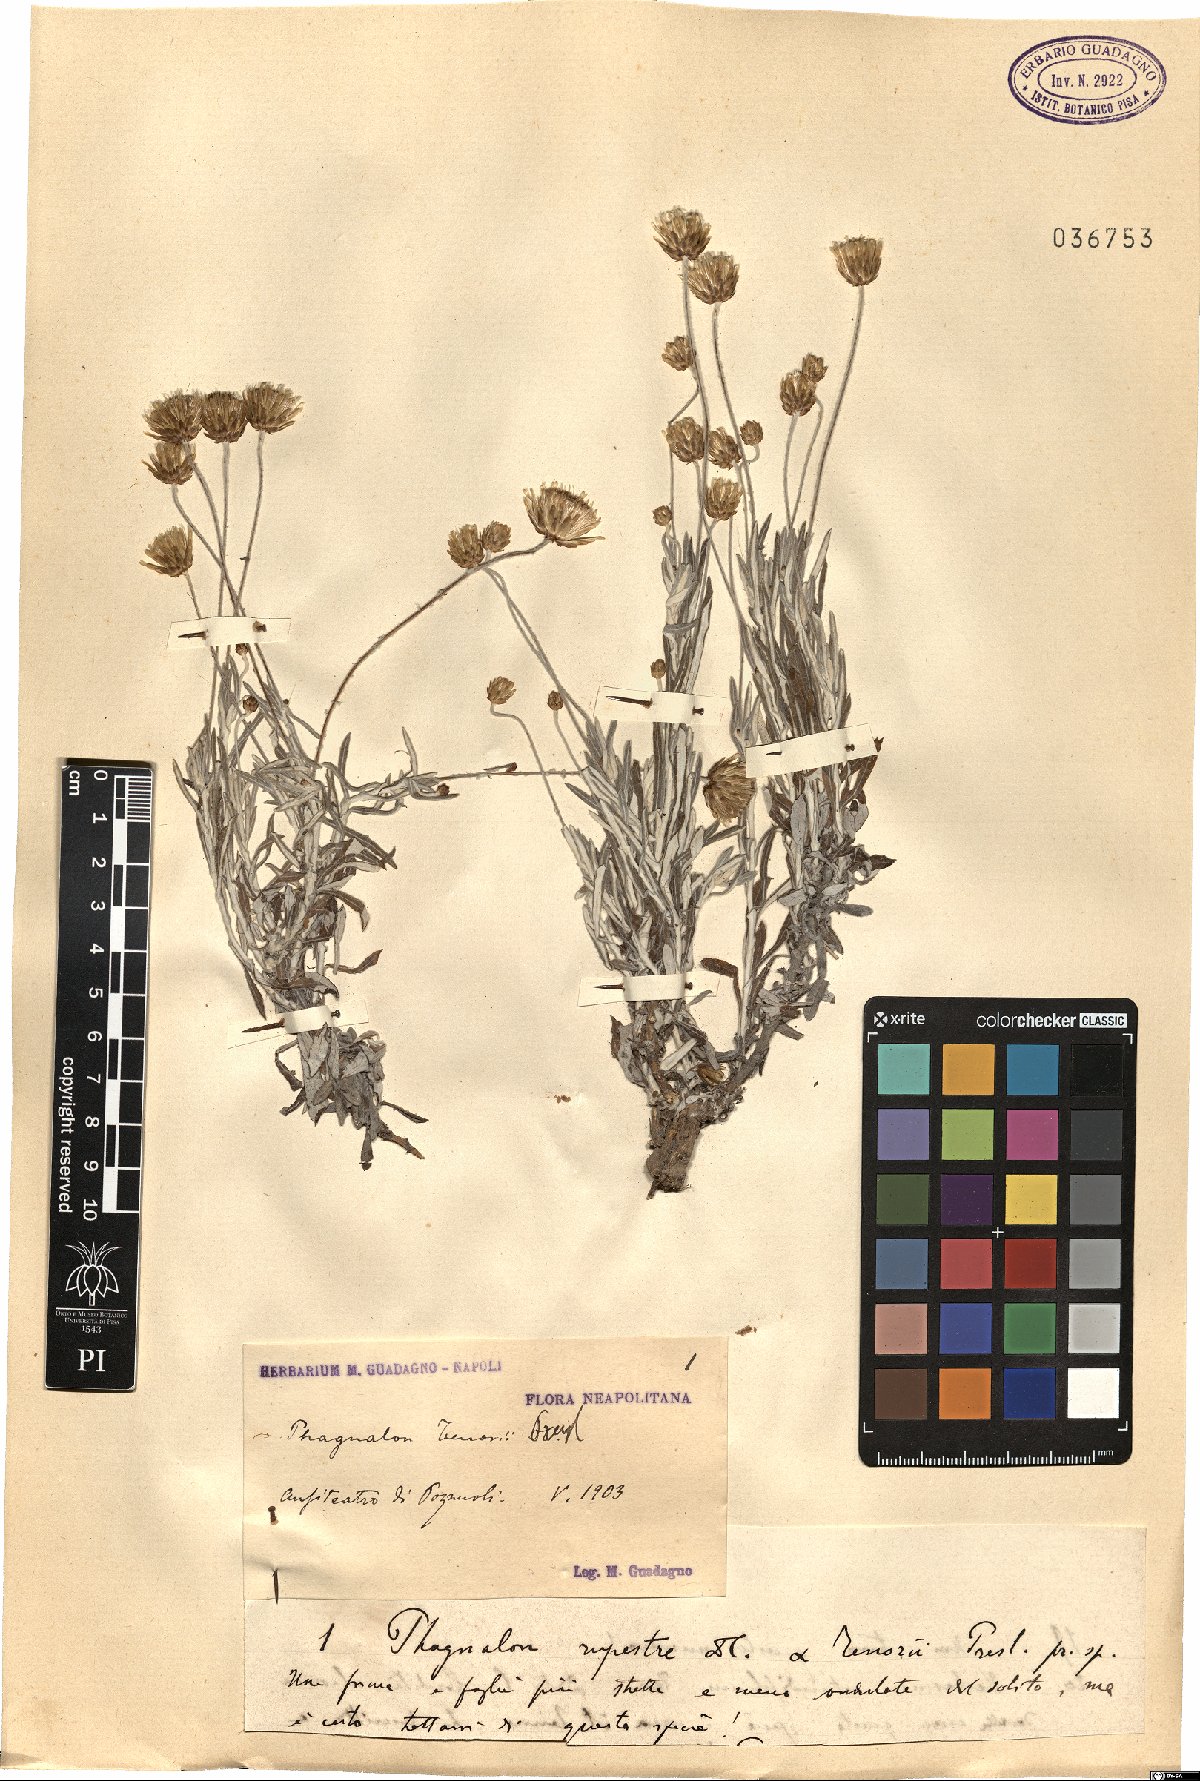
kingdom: Plantae
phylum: Tracheophyta
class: Magnoliopsida
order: Asterales
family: Asteraceae
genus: Phagnalon
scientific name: Phagnalon graecum
